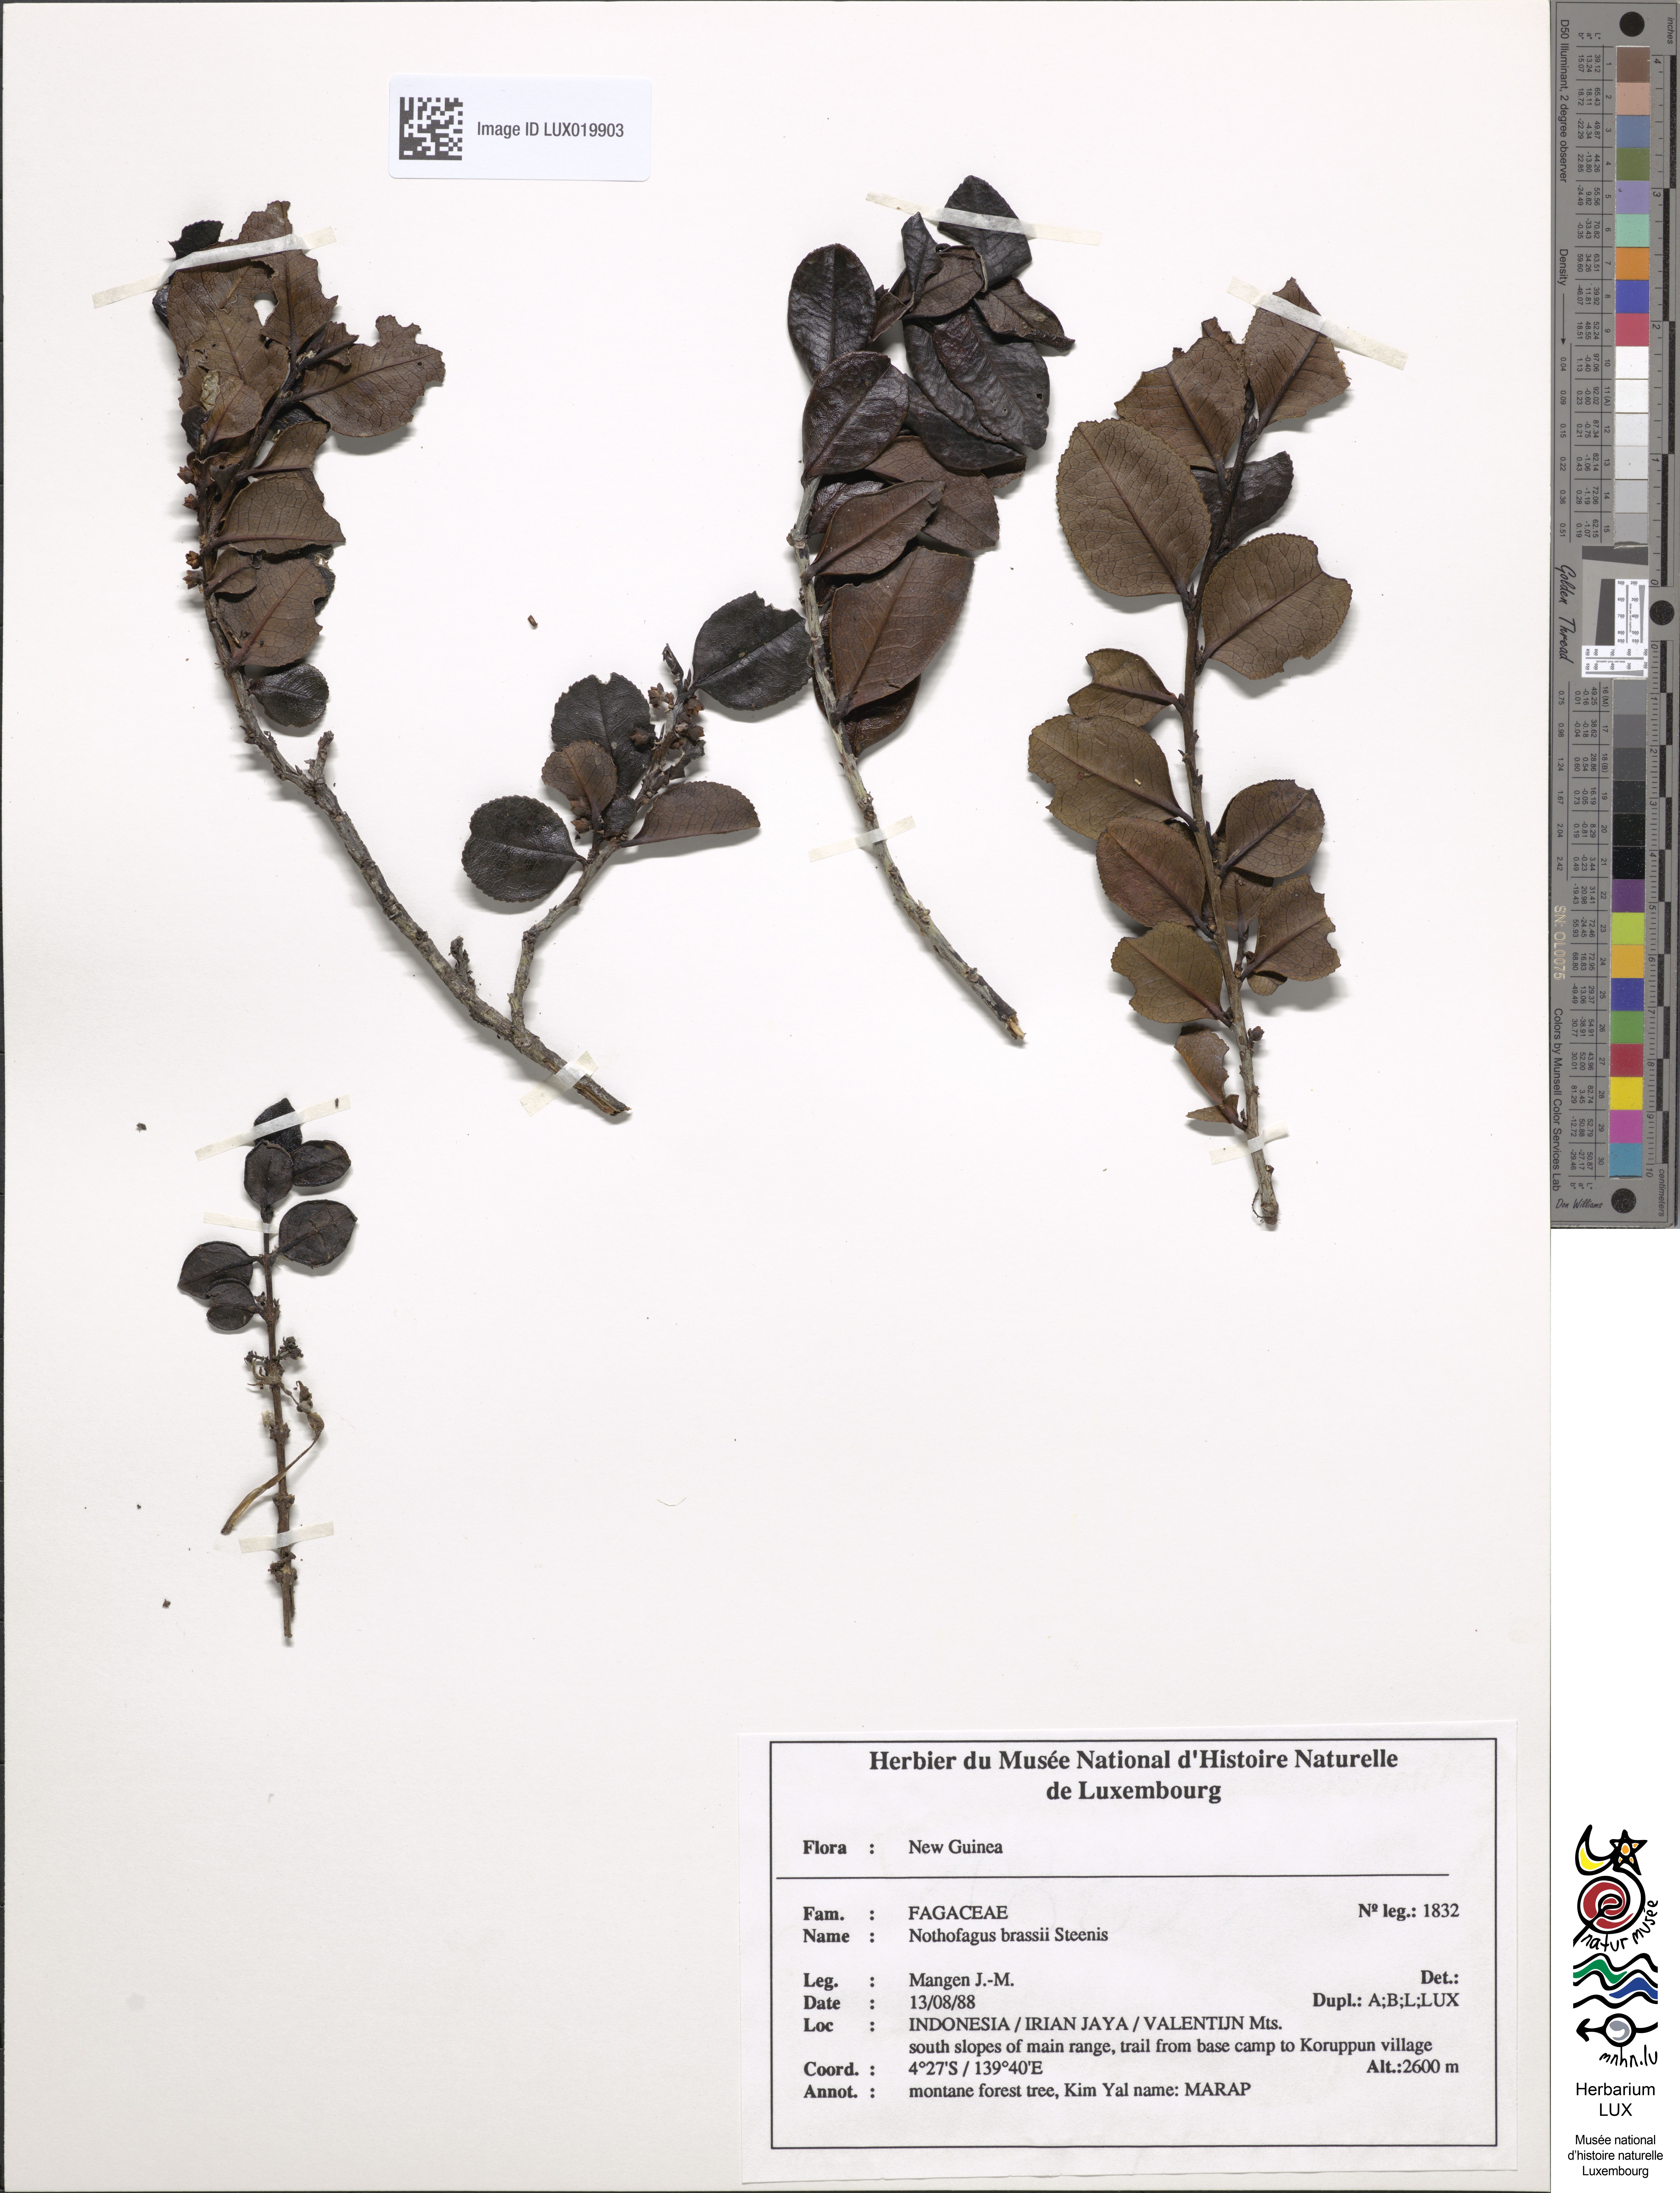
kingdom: Plantae
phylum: Tracheophyta
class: Magnoliopsida
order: Fagales
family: Nothofagaceae
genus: Nothofagus
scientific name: Nothofagus brassii
